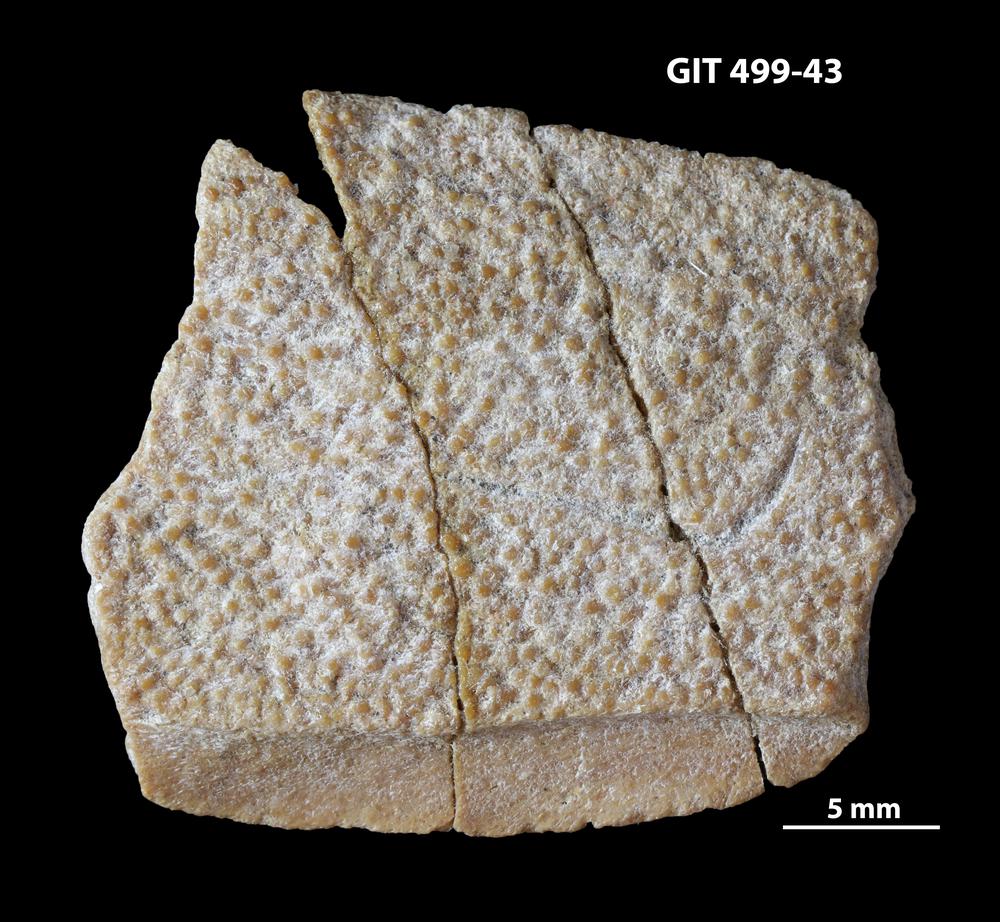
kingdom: Animalia
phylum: Chordata
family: Holoptychiidae
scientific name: Holoptychiidae
